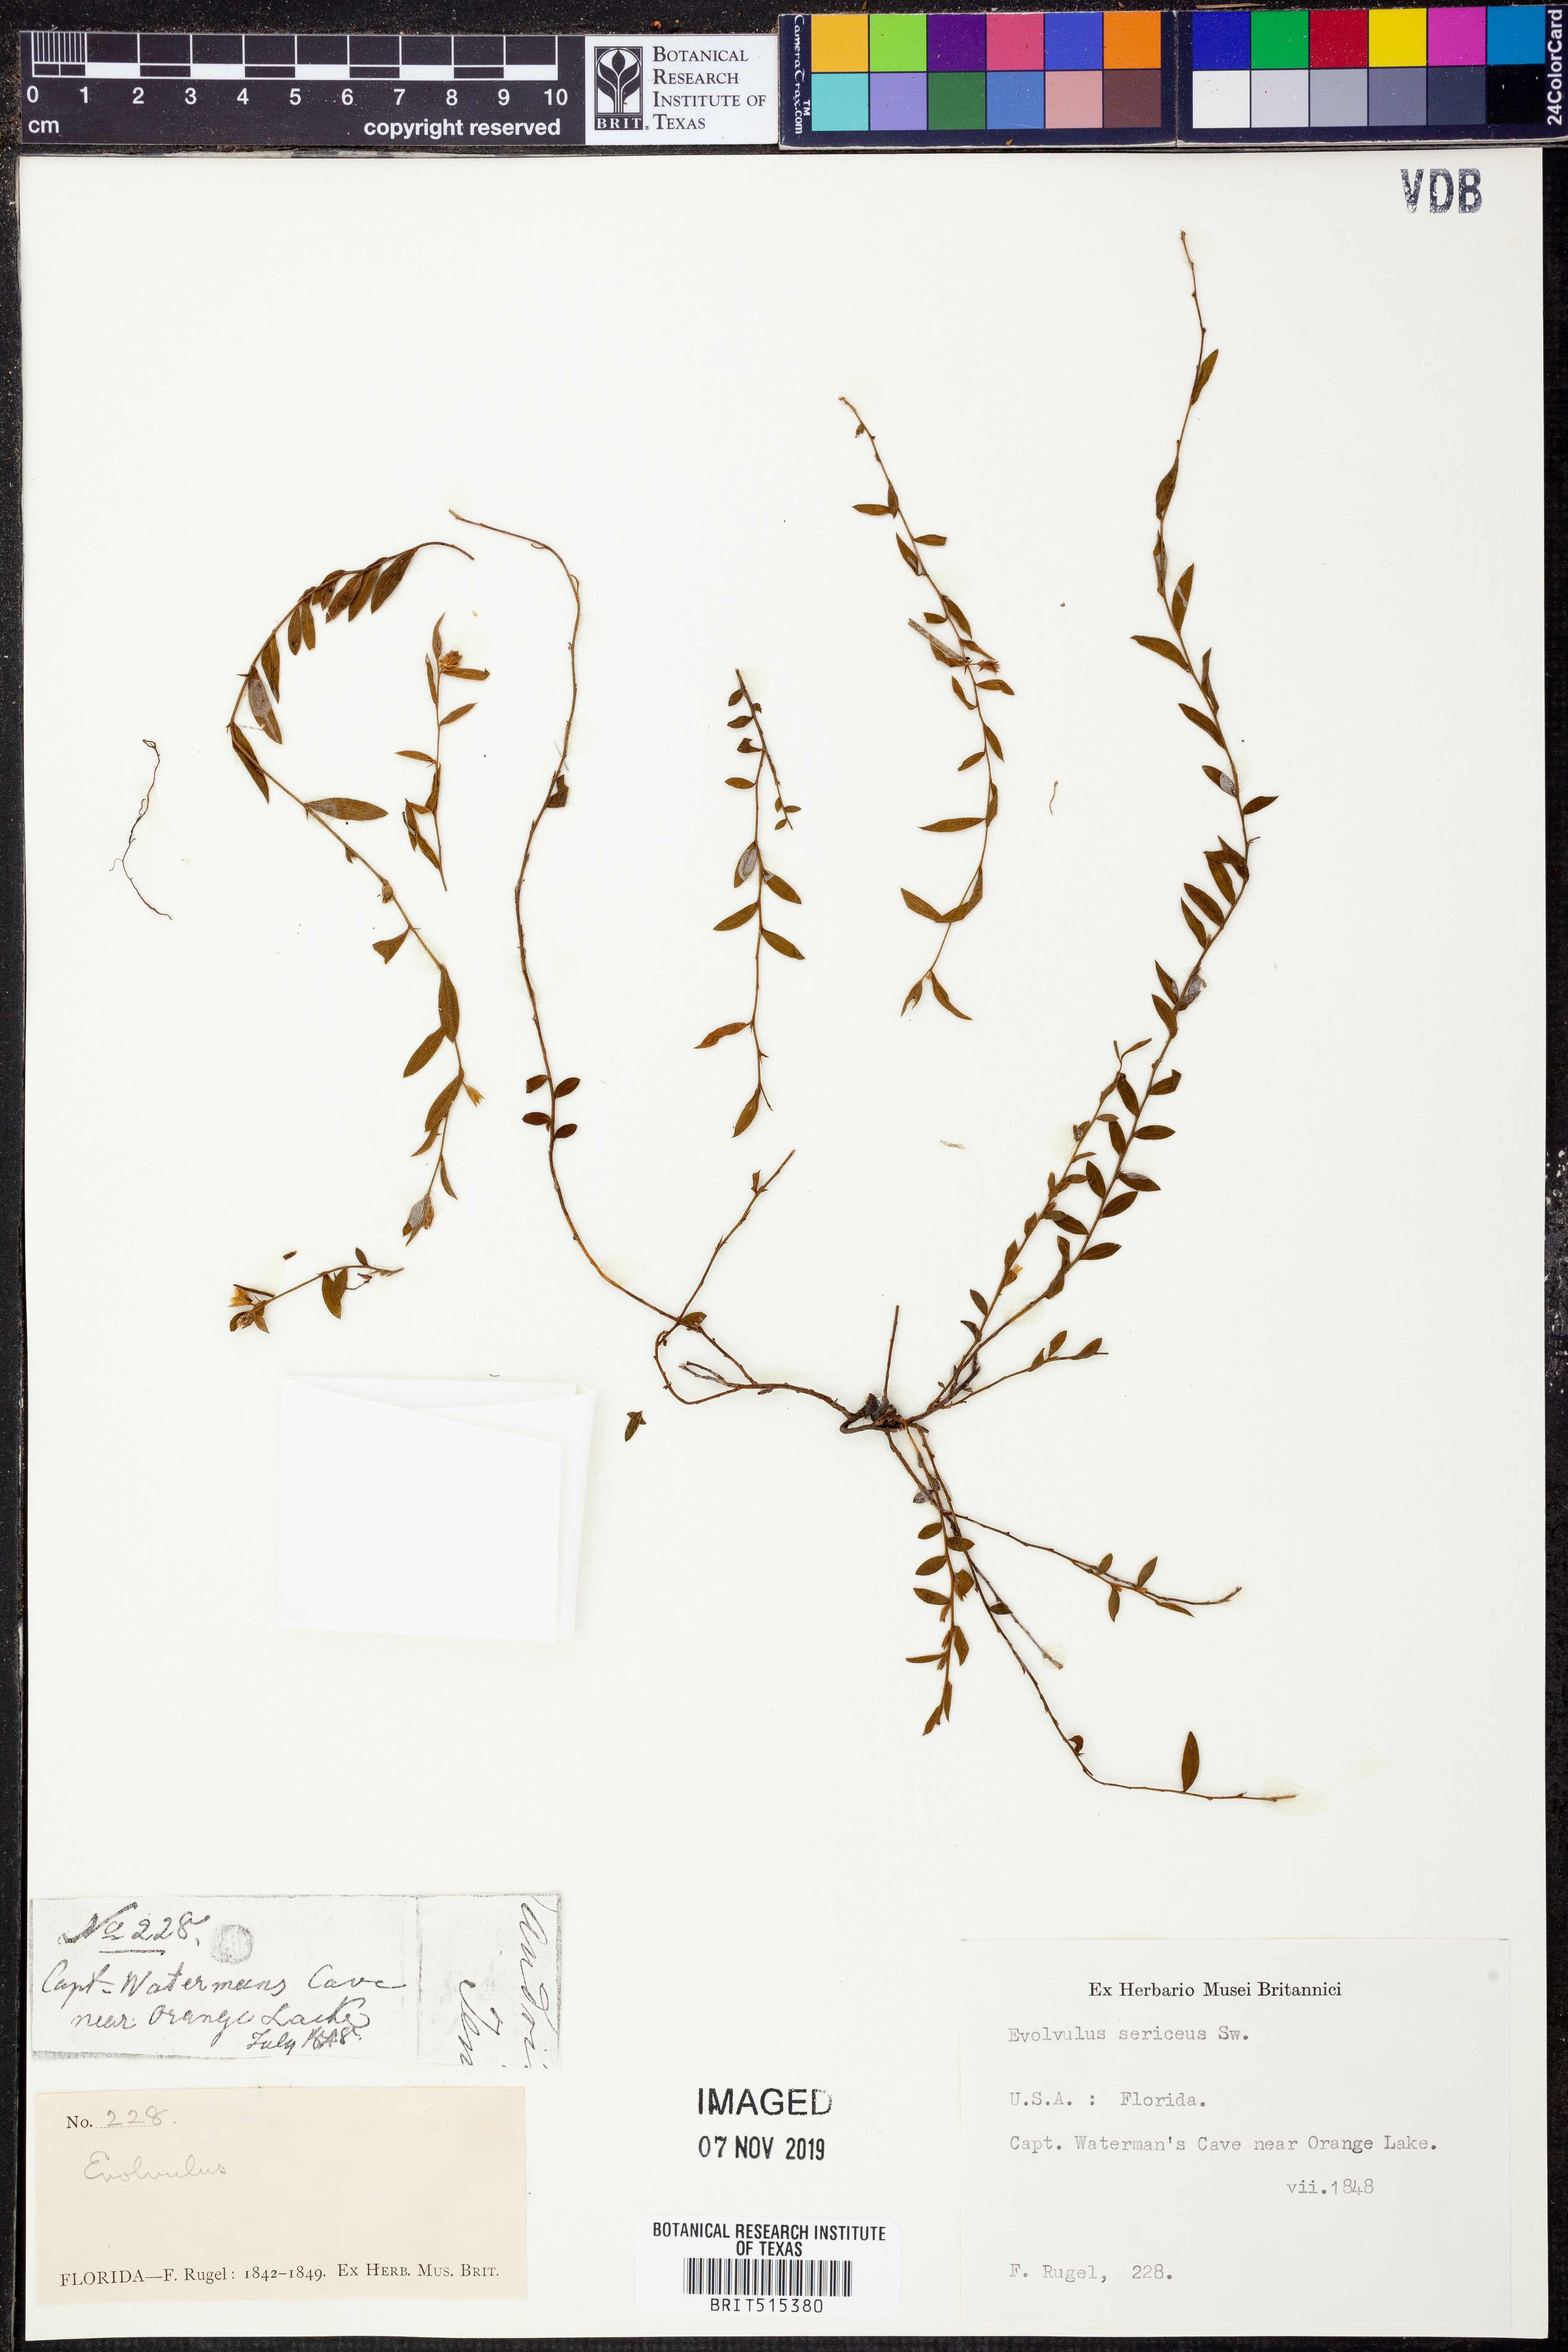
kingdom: Plantae
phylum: Tracheophyta
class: Magnoliopsida
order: Solanales
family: Convolvulaceae
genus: Evolvulus
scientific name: Evolvulus sericeus
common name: Blue dots
